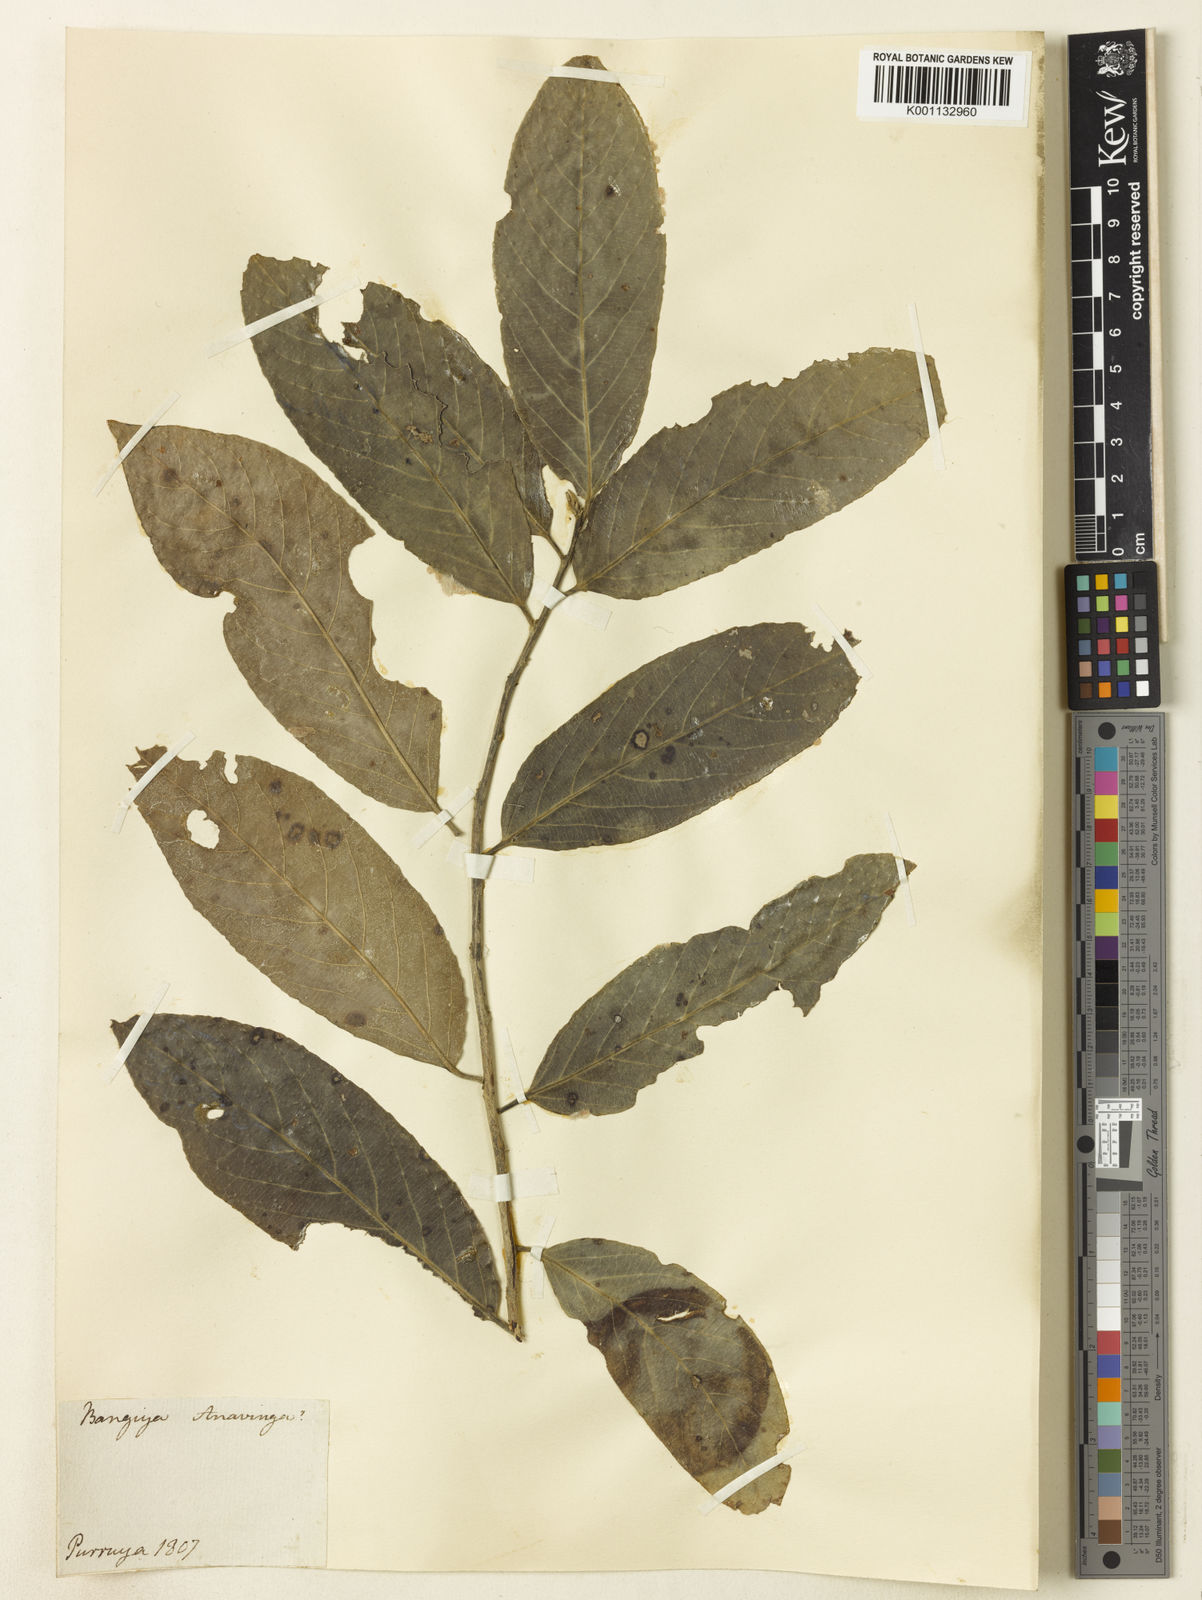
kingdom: Plantae
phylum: Tracheophyta
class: Magnoliopsida
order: Malpighiales
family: Salicaceae
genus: Casearia
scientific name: Casearia
